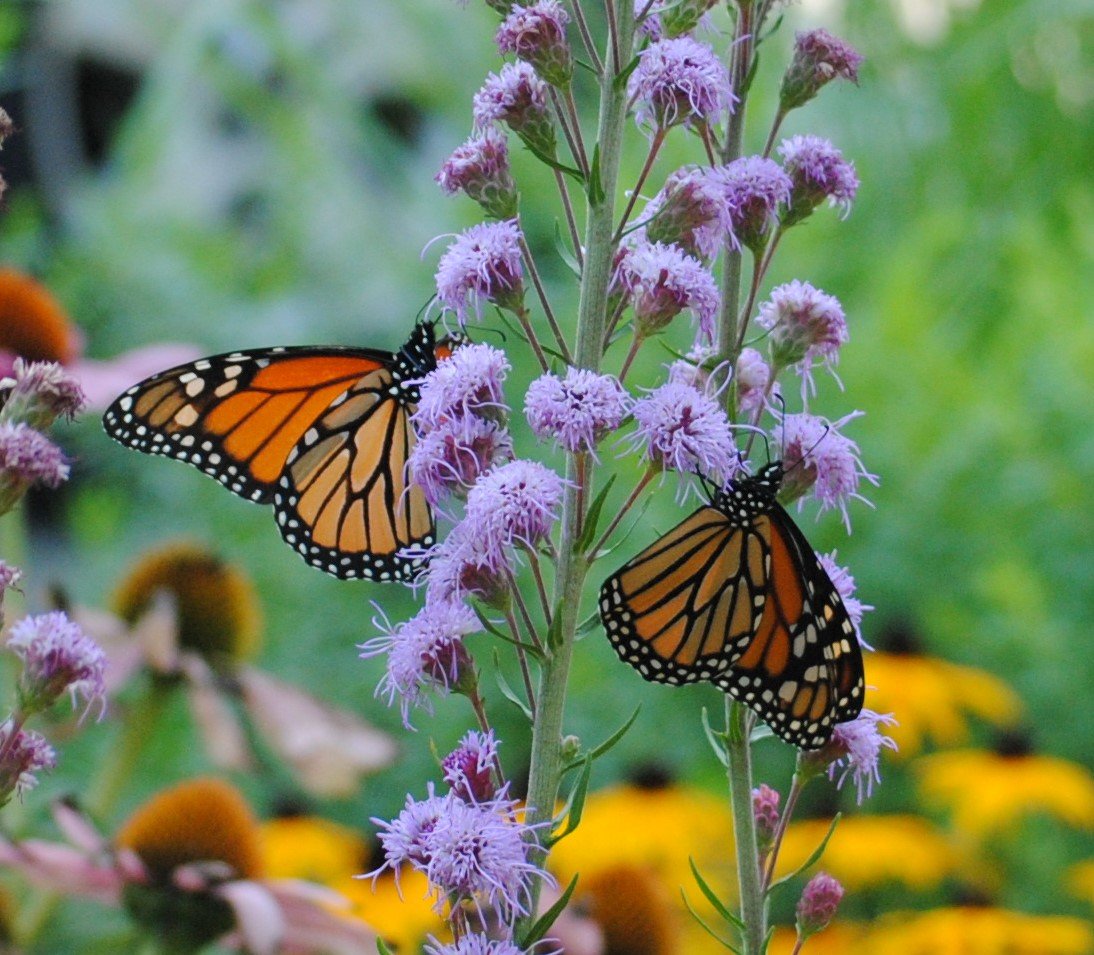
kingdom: Animalia
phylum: Arthropoda
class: Insecta
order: Lepidoptera
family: Nymphalidae
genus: Danaus
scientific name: Danaus plexippus
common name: Monarch
